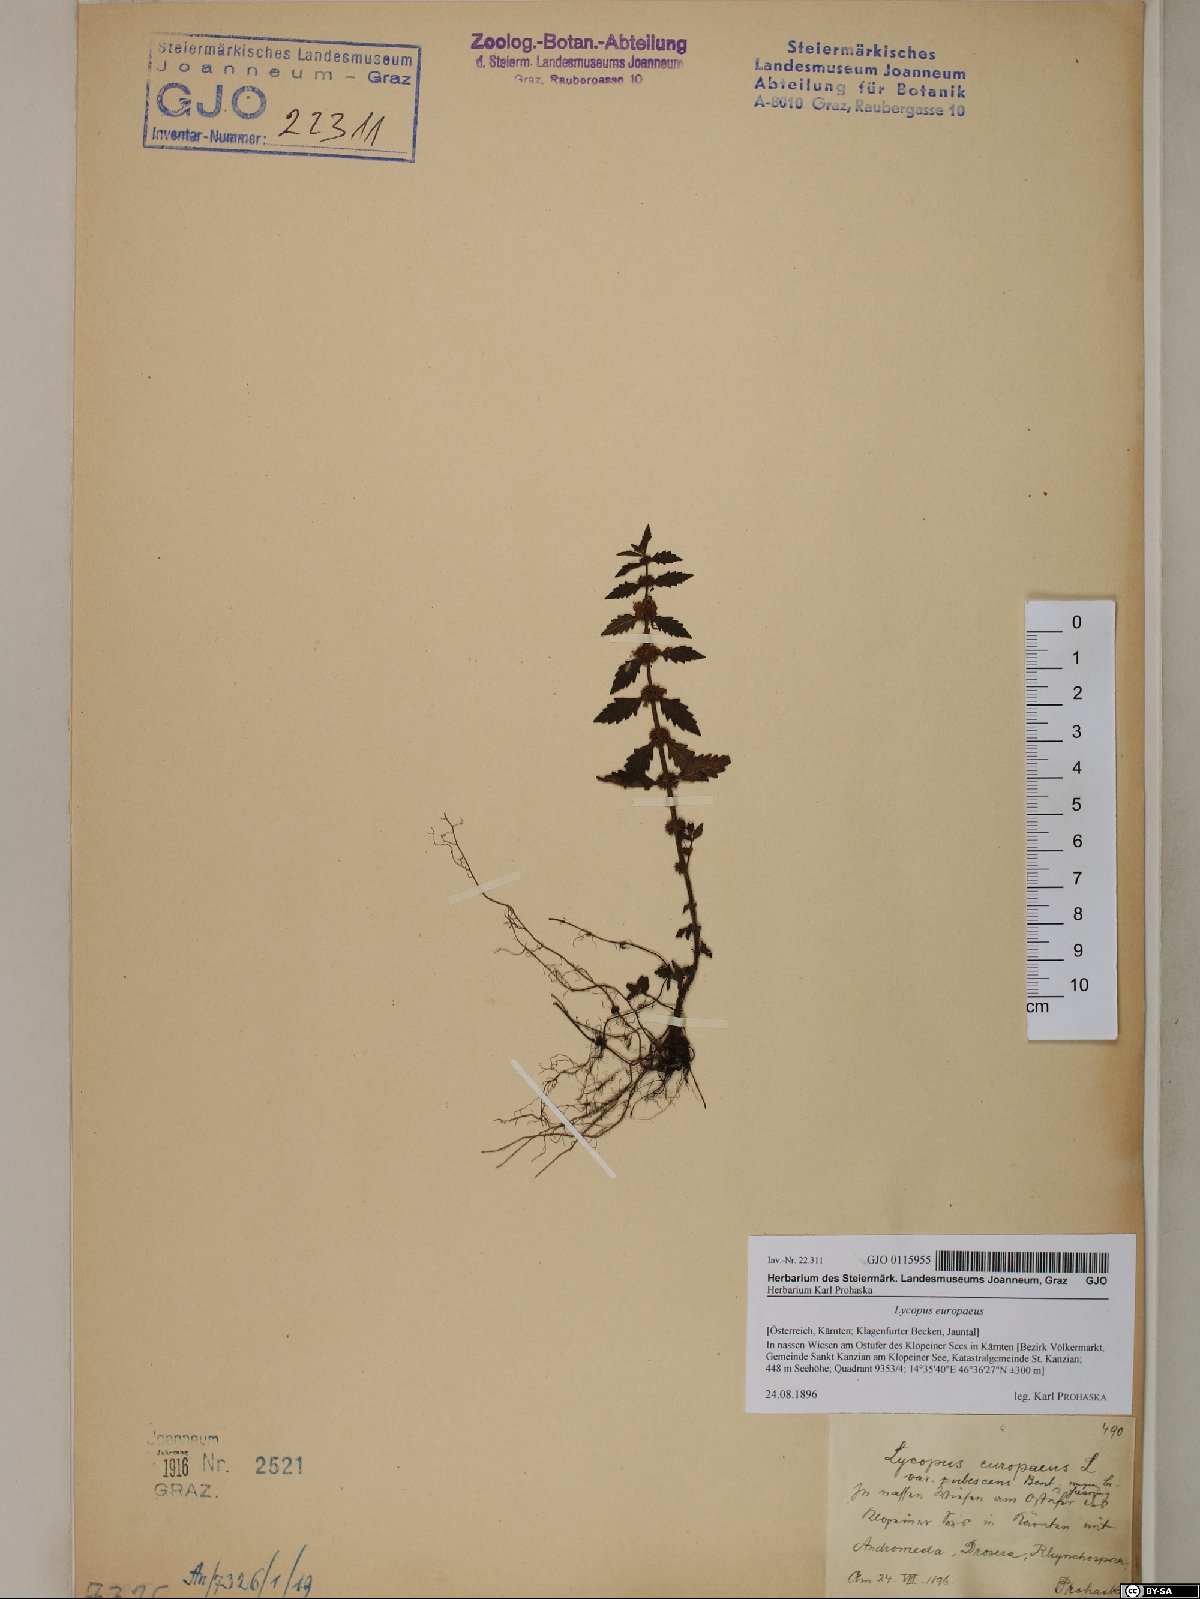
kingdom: Plantae
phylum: Tracheophyta
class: Magnoliopsida
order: Lamiales
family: Lamiaceae
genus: Lycopus
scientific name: Lycopus europaeus
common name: European bugleweed
